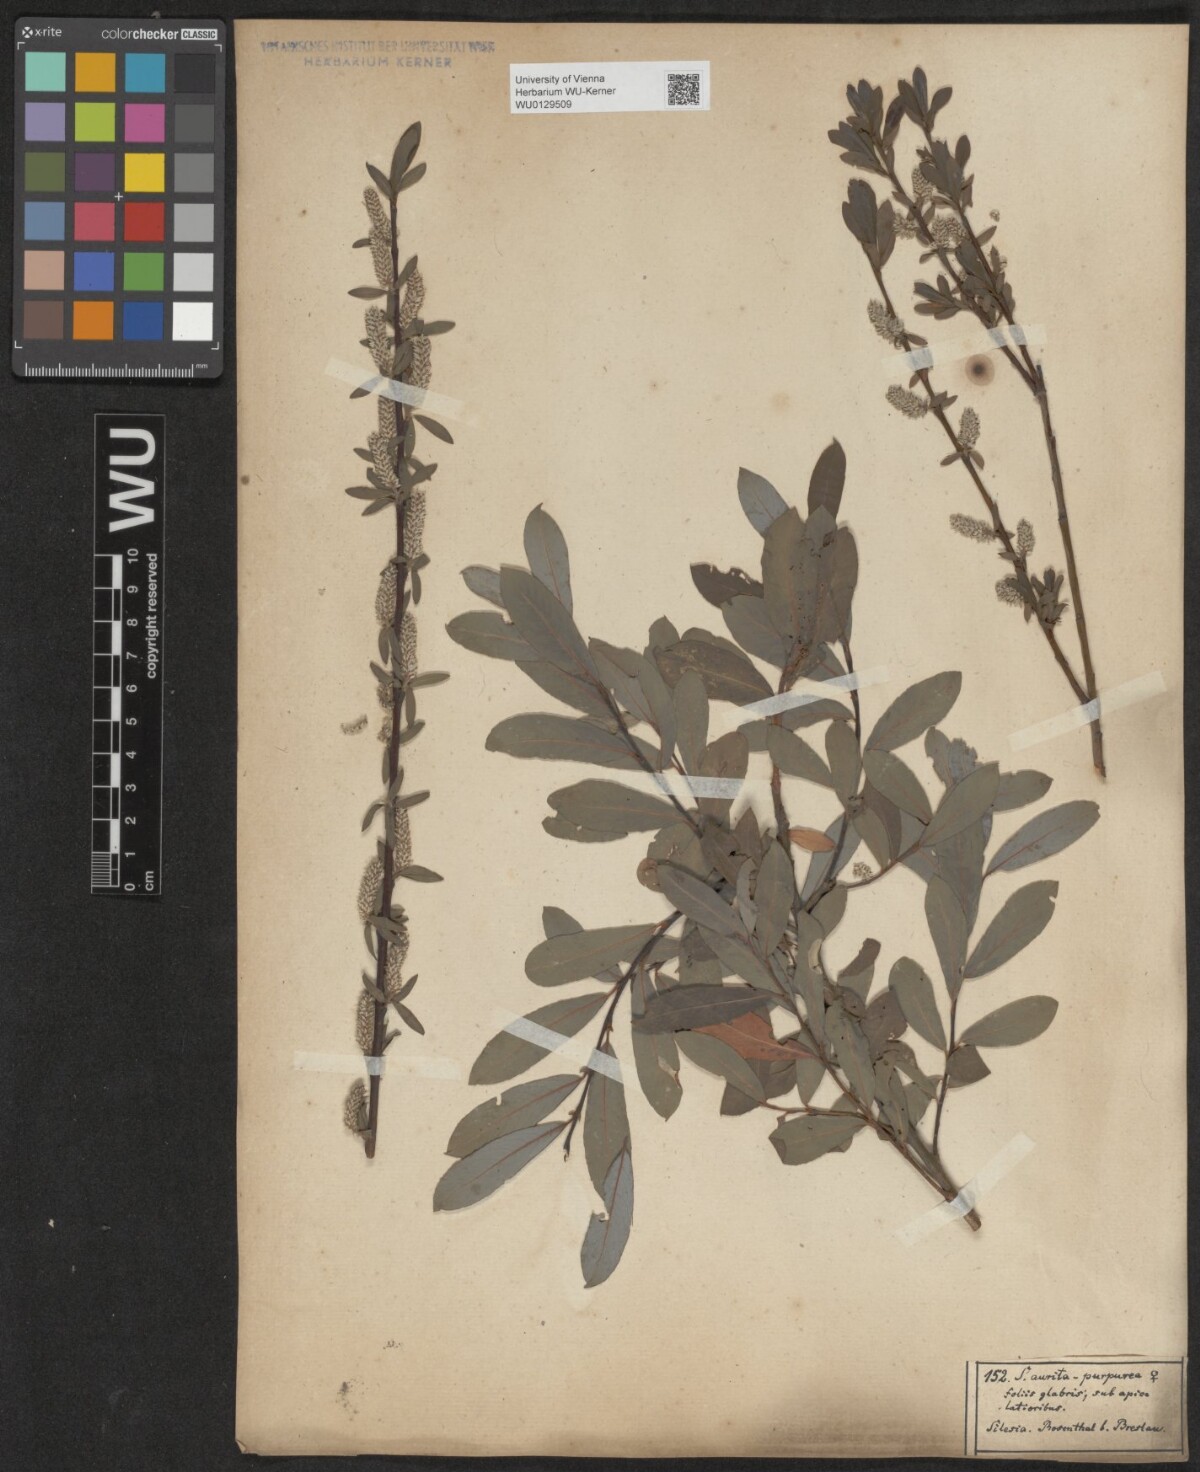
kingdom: Plantae
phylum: Tracheophyta
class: Magnoliopsida
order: Malpighiales
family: Salicaceae
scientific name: Salicaceae
